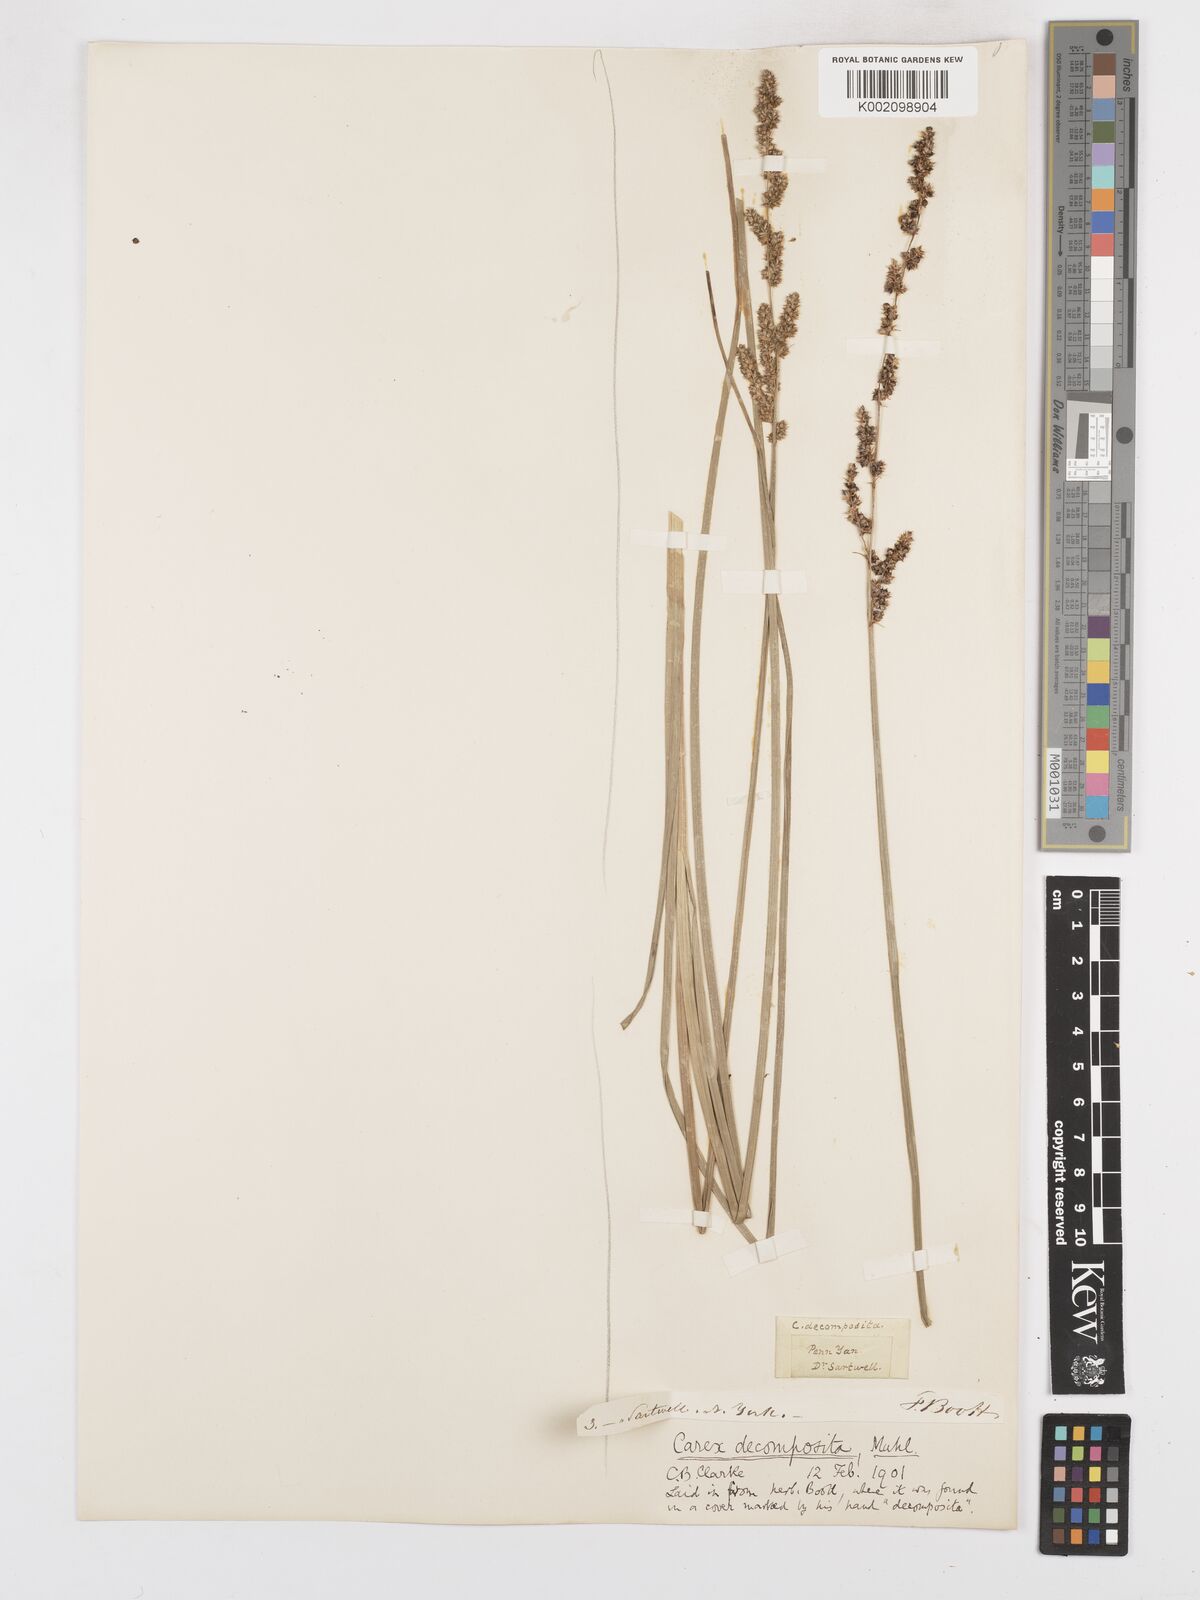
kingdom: Plantae
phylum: Tracheophyta
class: Liliopsida
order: Poales
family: Cyperaceae
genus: Carex
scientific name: Carex decomposita
